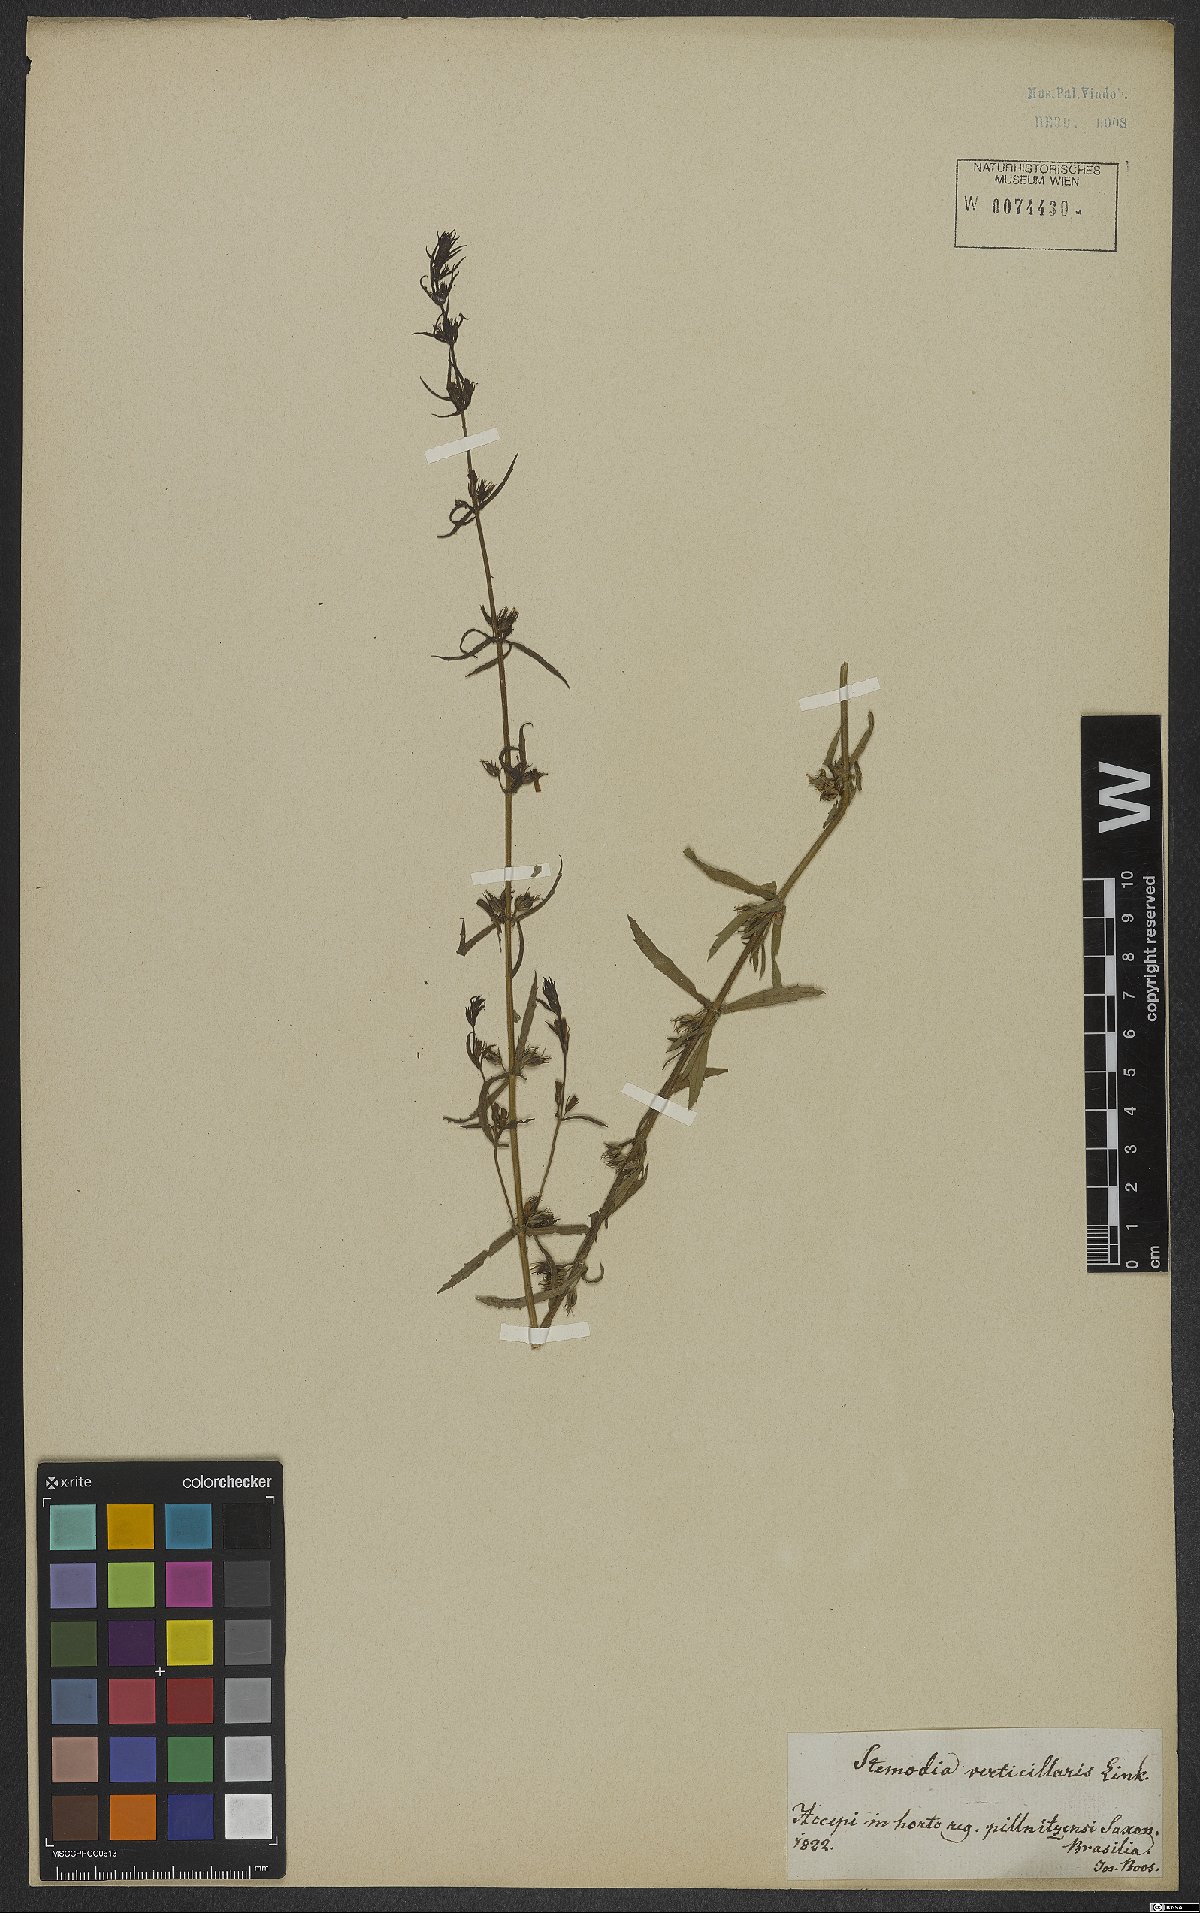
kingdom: Plantae
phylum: Tracheophyta
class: Magnoliopsida
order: Lamiales
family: Plantaginaceae
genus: Stemodia
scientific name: Stemodia verticillata
